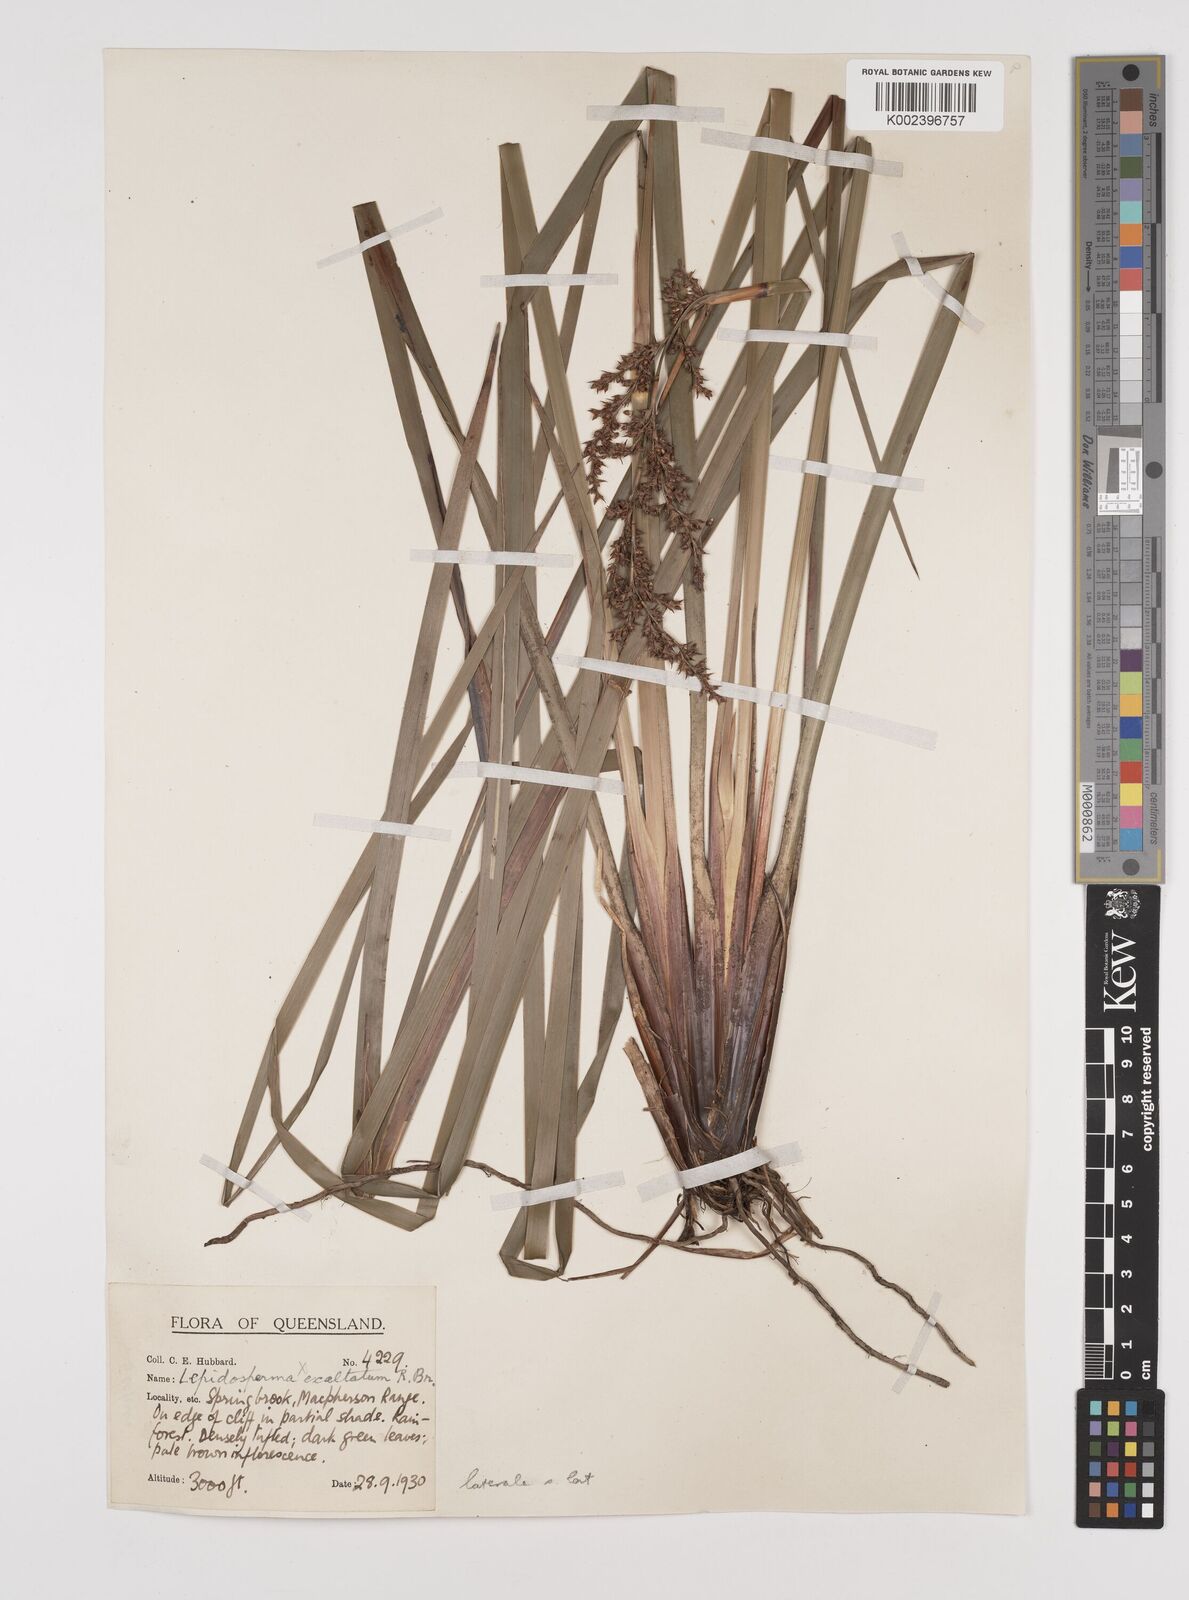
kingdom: Plantae
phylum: Tracheophyta
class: Liliopsida
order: Poales
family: Cyperaceae
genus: Lepidosperma
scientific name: Lepidosperma laterale
